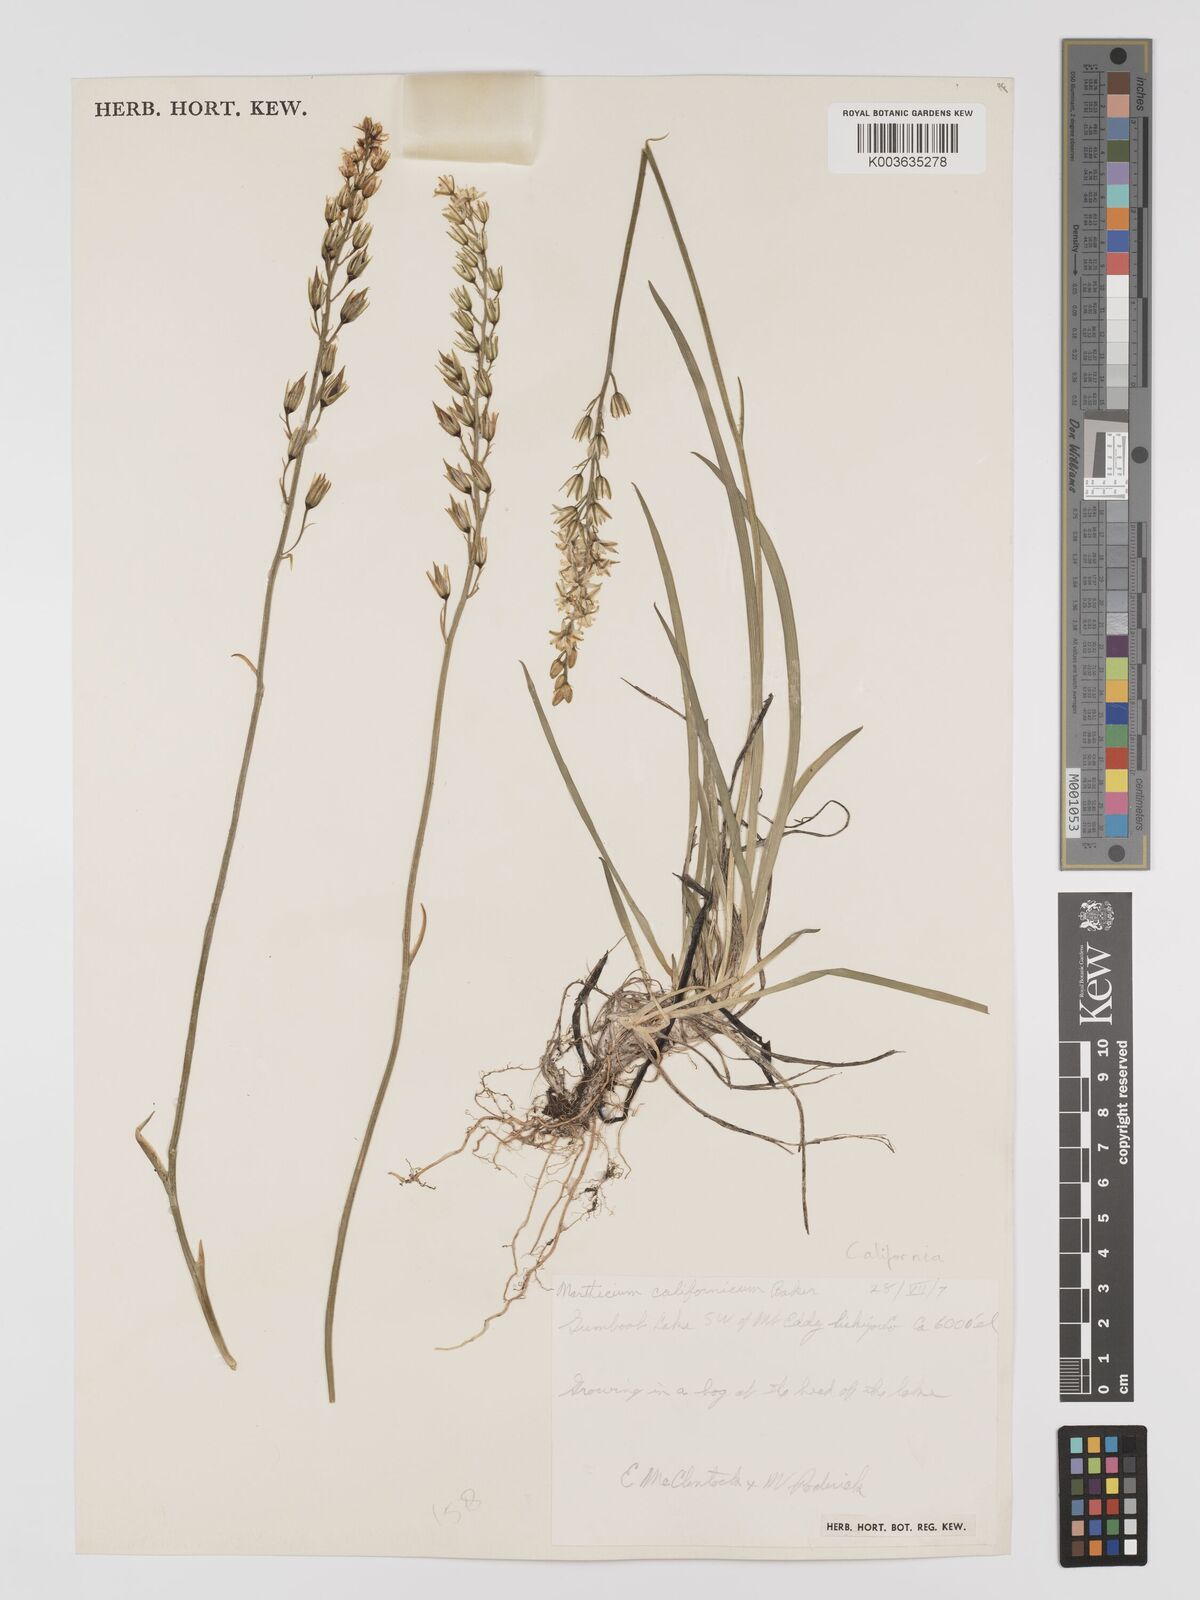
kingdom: Plantae
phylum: Tracheophyta
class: Liliopsida
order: Dioscoreales
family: Nartheciaceae
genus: Narthecium
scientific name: Narthecium californicum
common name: California bog-asphodel
